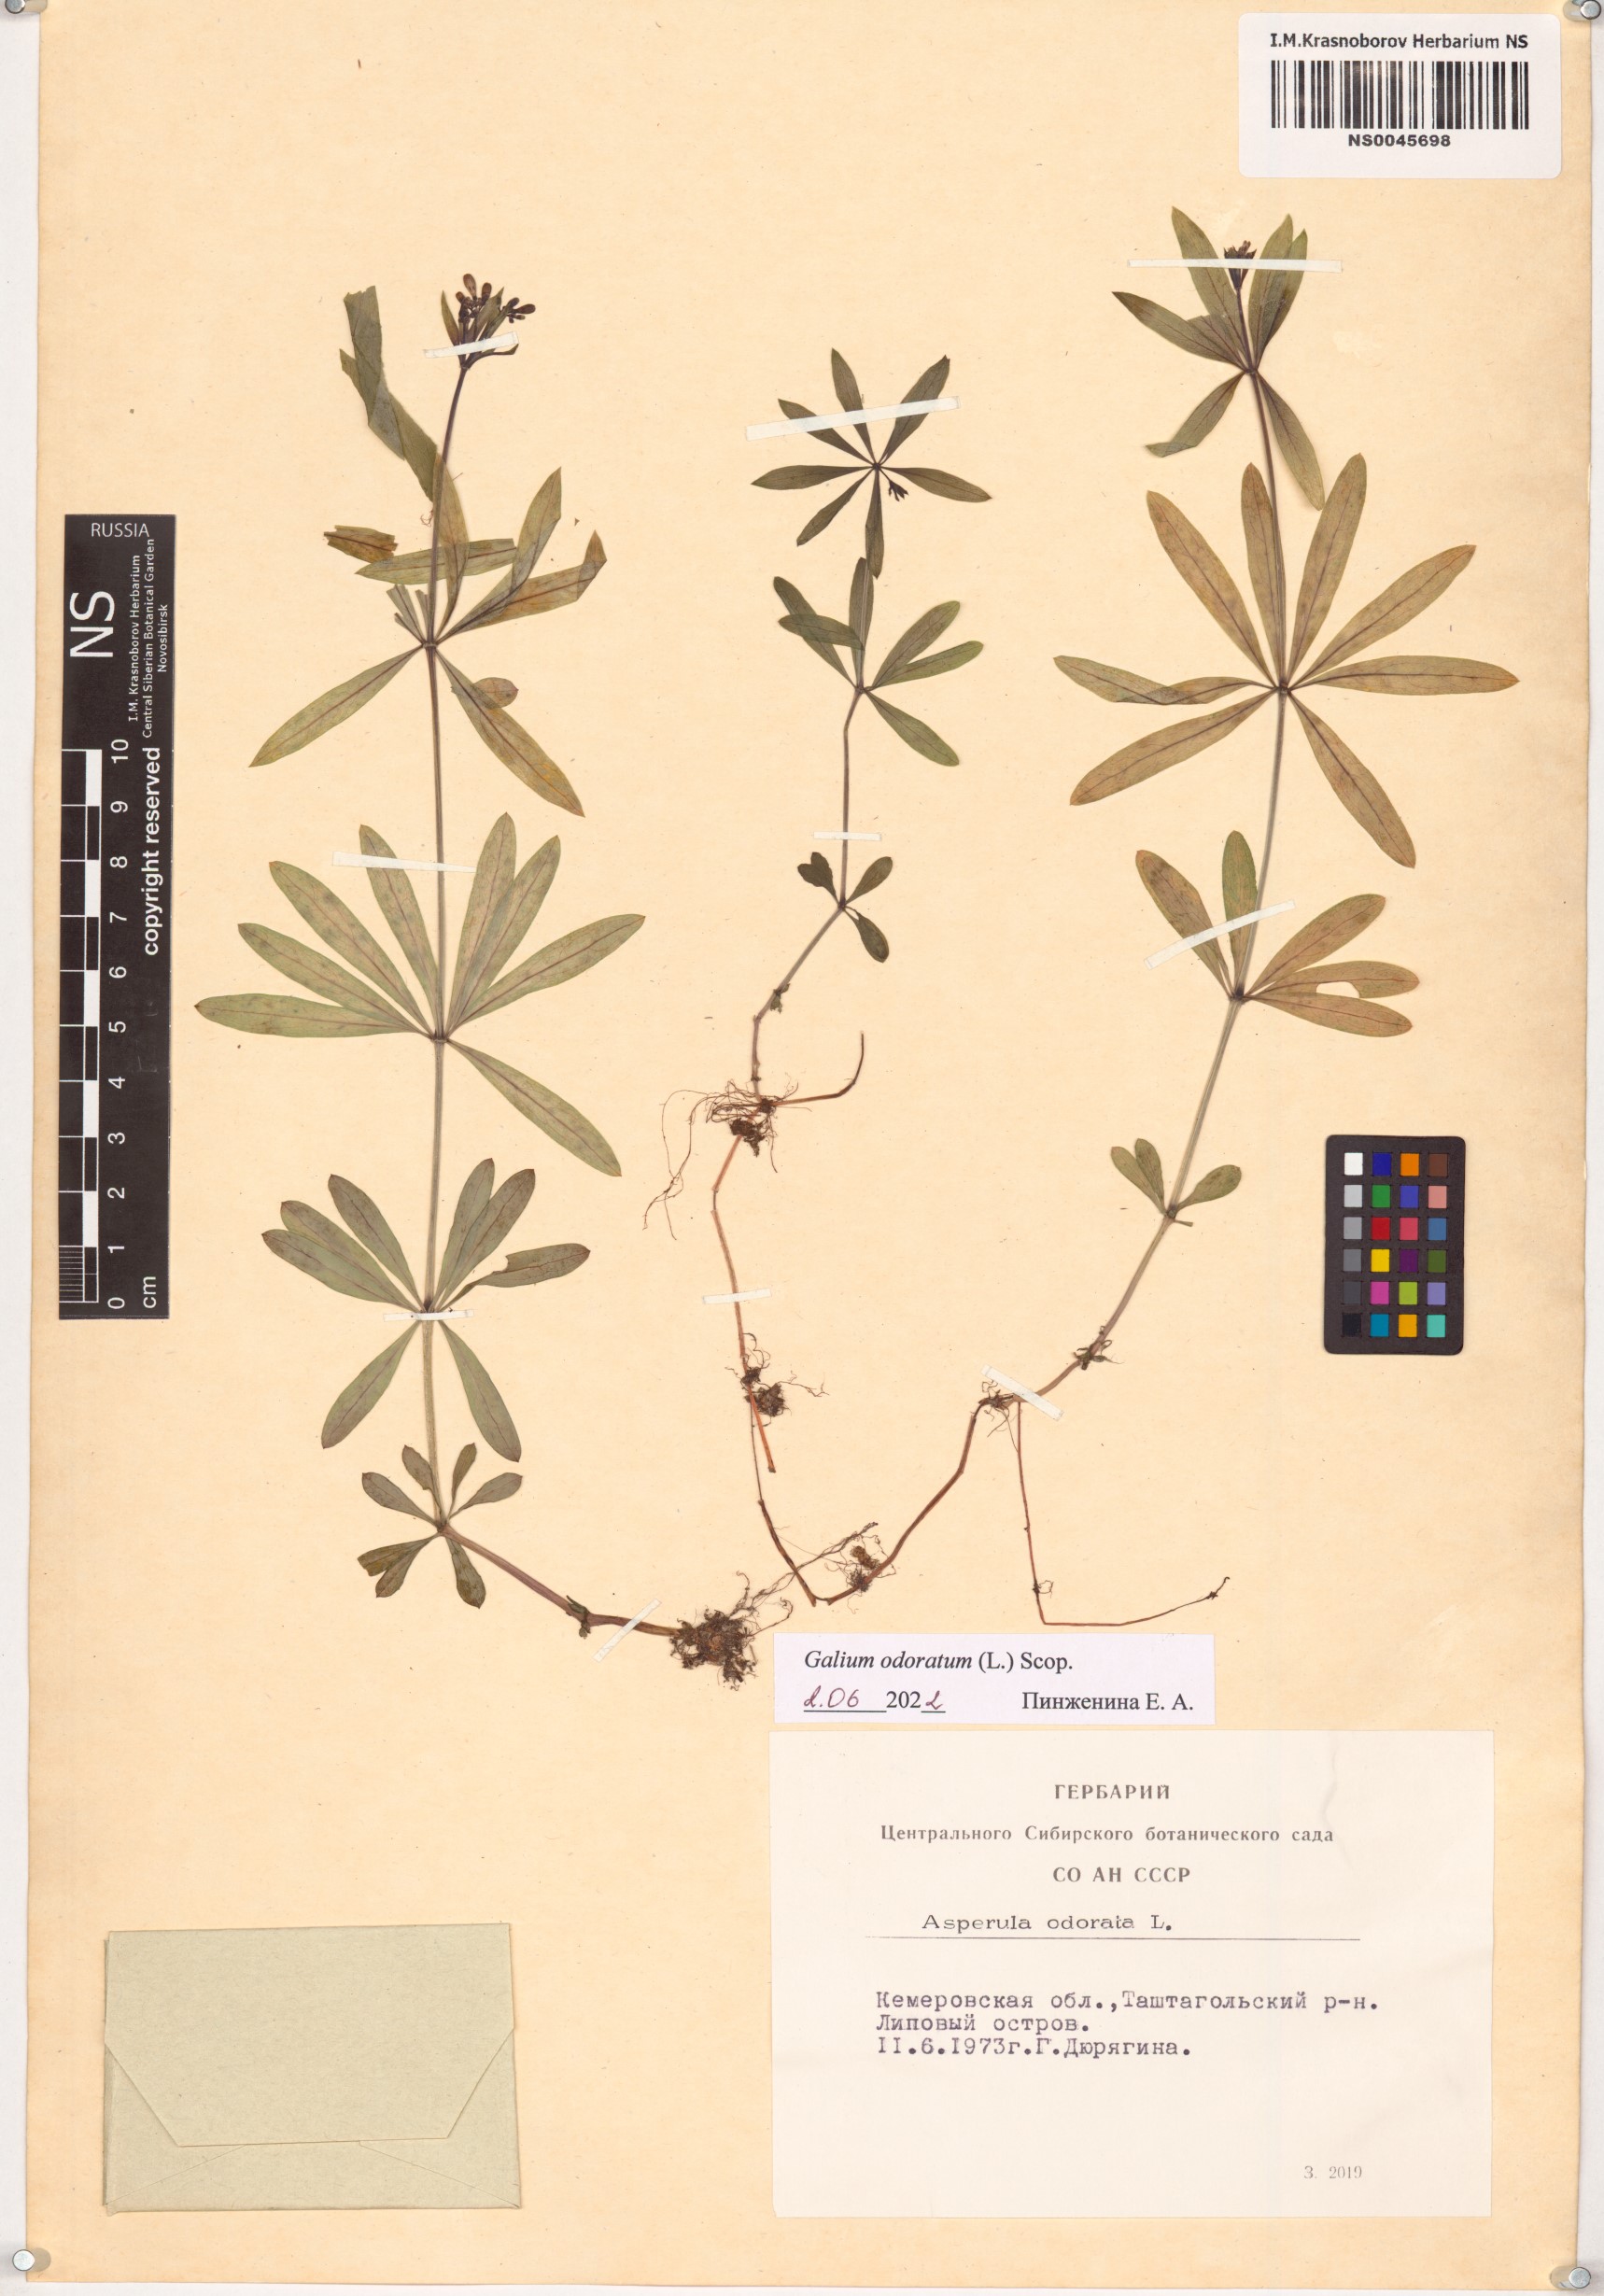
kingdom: Plantae
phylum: Tracheophyta
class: Magnoliopsida
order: Gentianales
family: Rubiaceae
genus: Galium
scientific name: Galium odoratum
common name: Sweet woodruff
